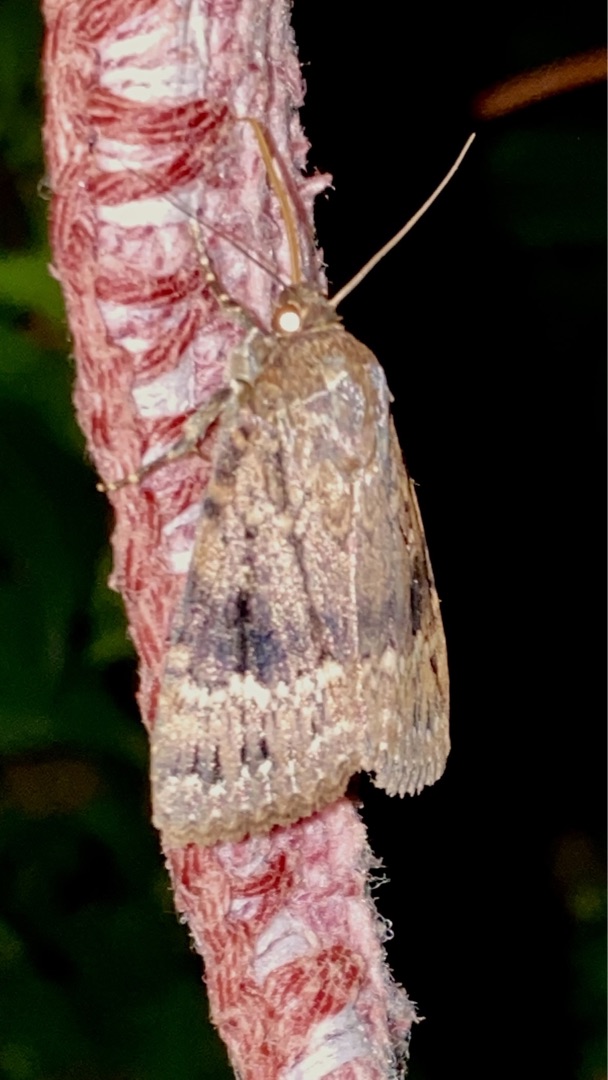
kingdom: Animalia
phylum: Arthropoda
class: Insecta
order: Lepidoptera
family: Noctuidae
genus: Amphipyra
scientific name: Amphipyra pyramidea
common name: Pyramideugle
